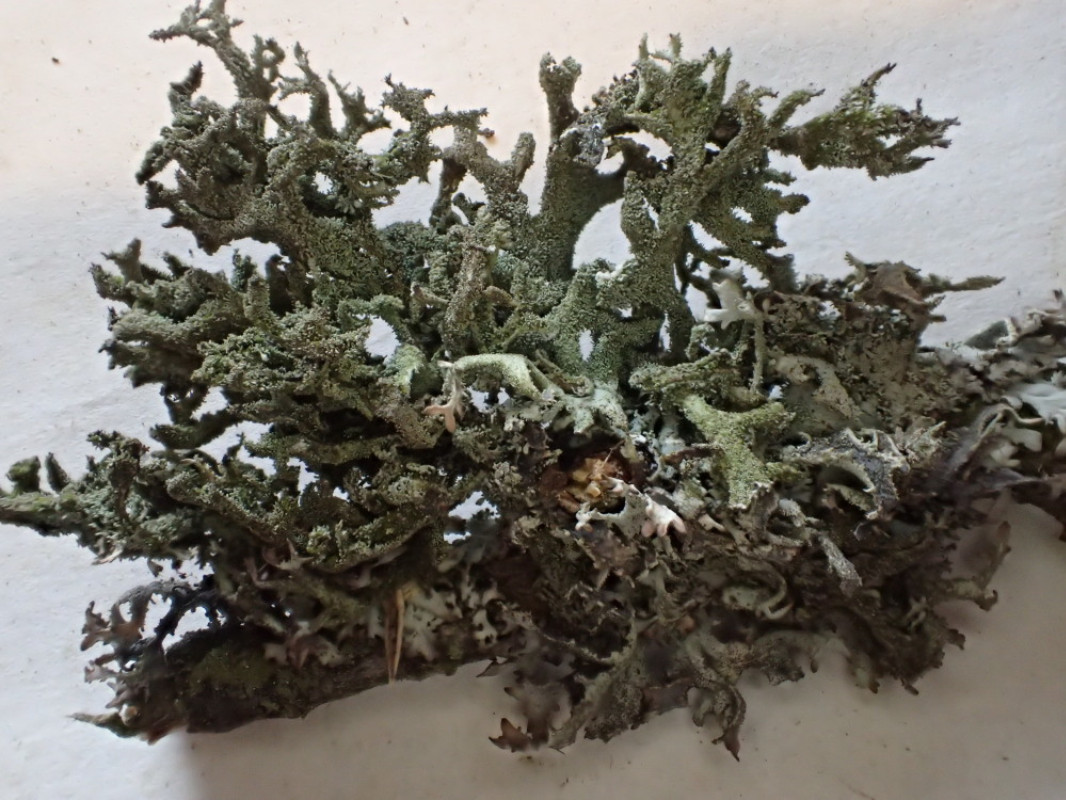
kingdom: Fungi
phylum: Ascomycota
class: Lecanoromycetes
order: Lecanorales
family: Parmeliaceae
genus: Pseudevernia
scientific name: Pseudevernia furfuracea
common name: grå fyrrelav
